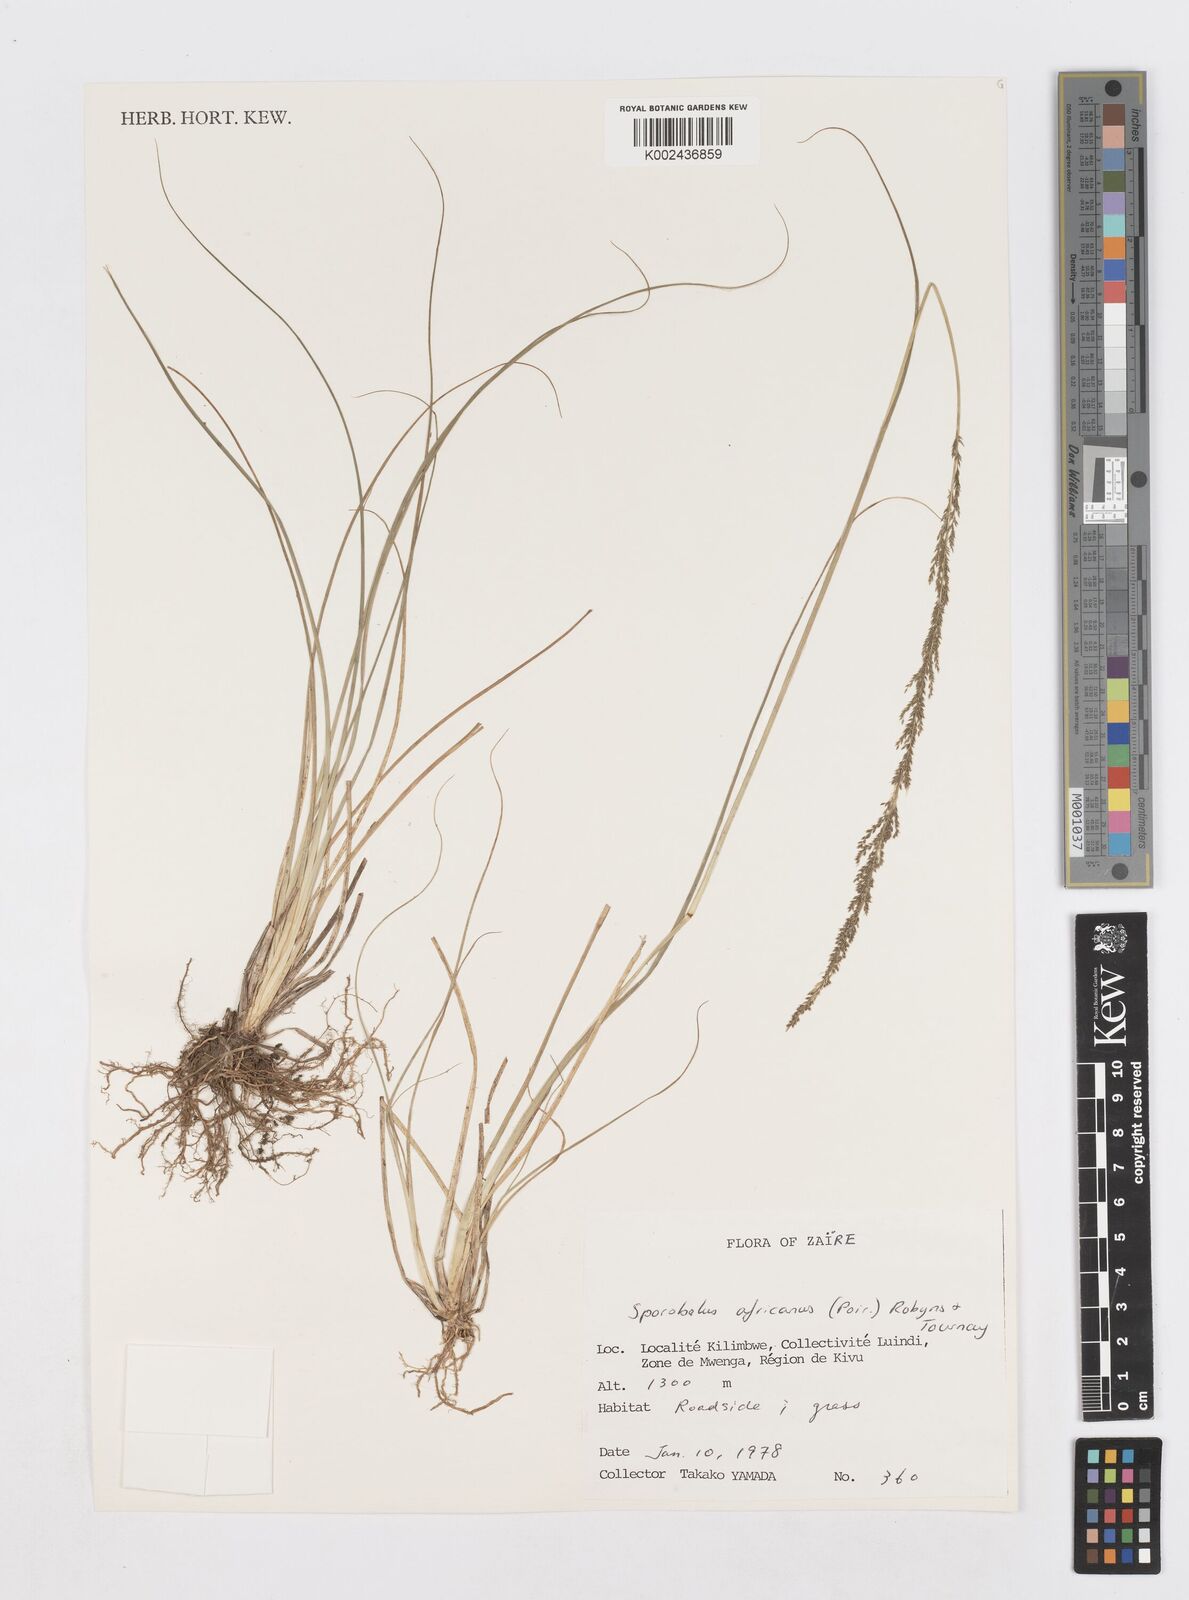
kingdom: Plantae
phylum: Tracheophyta
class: Liliopsida
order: Poales
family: Poaceae
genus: Sporobolus
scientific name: Sporobolus africanus
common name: African dropseed
